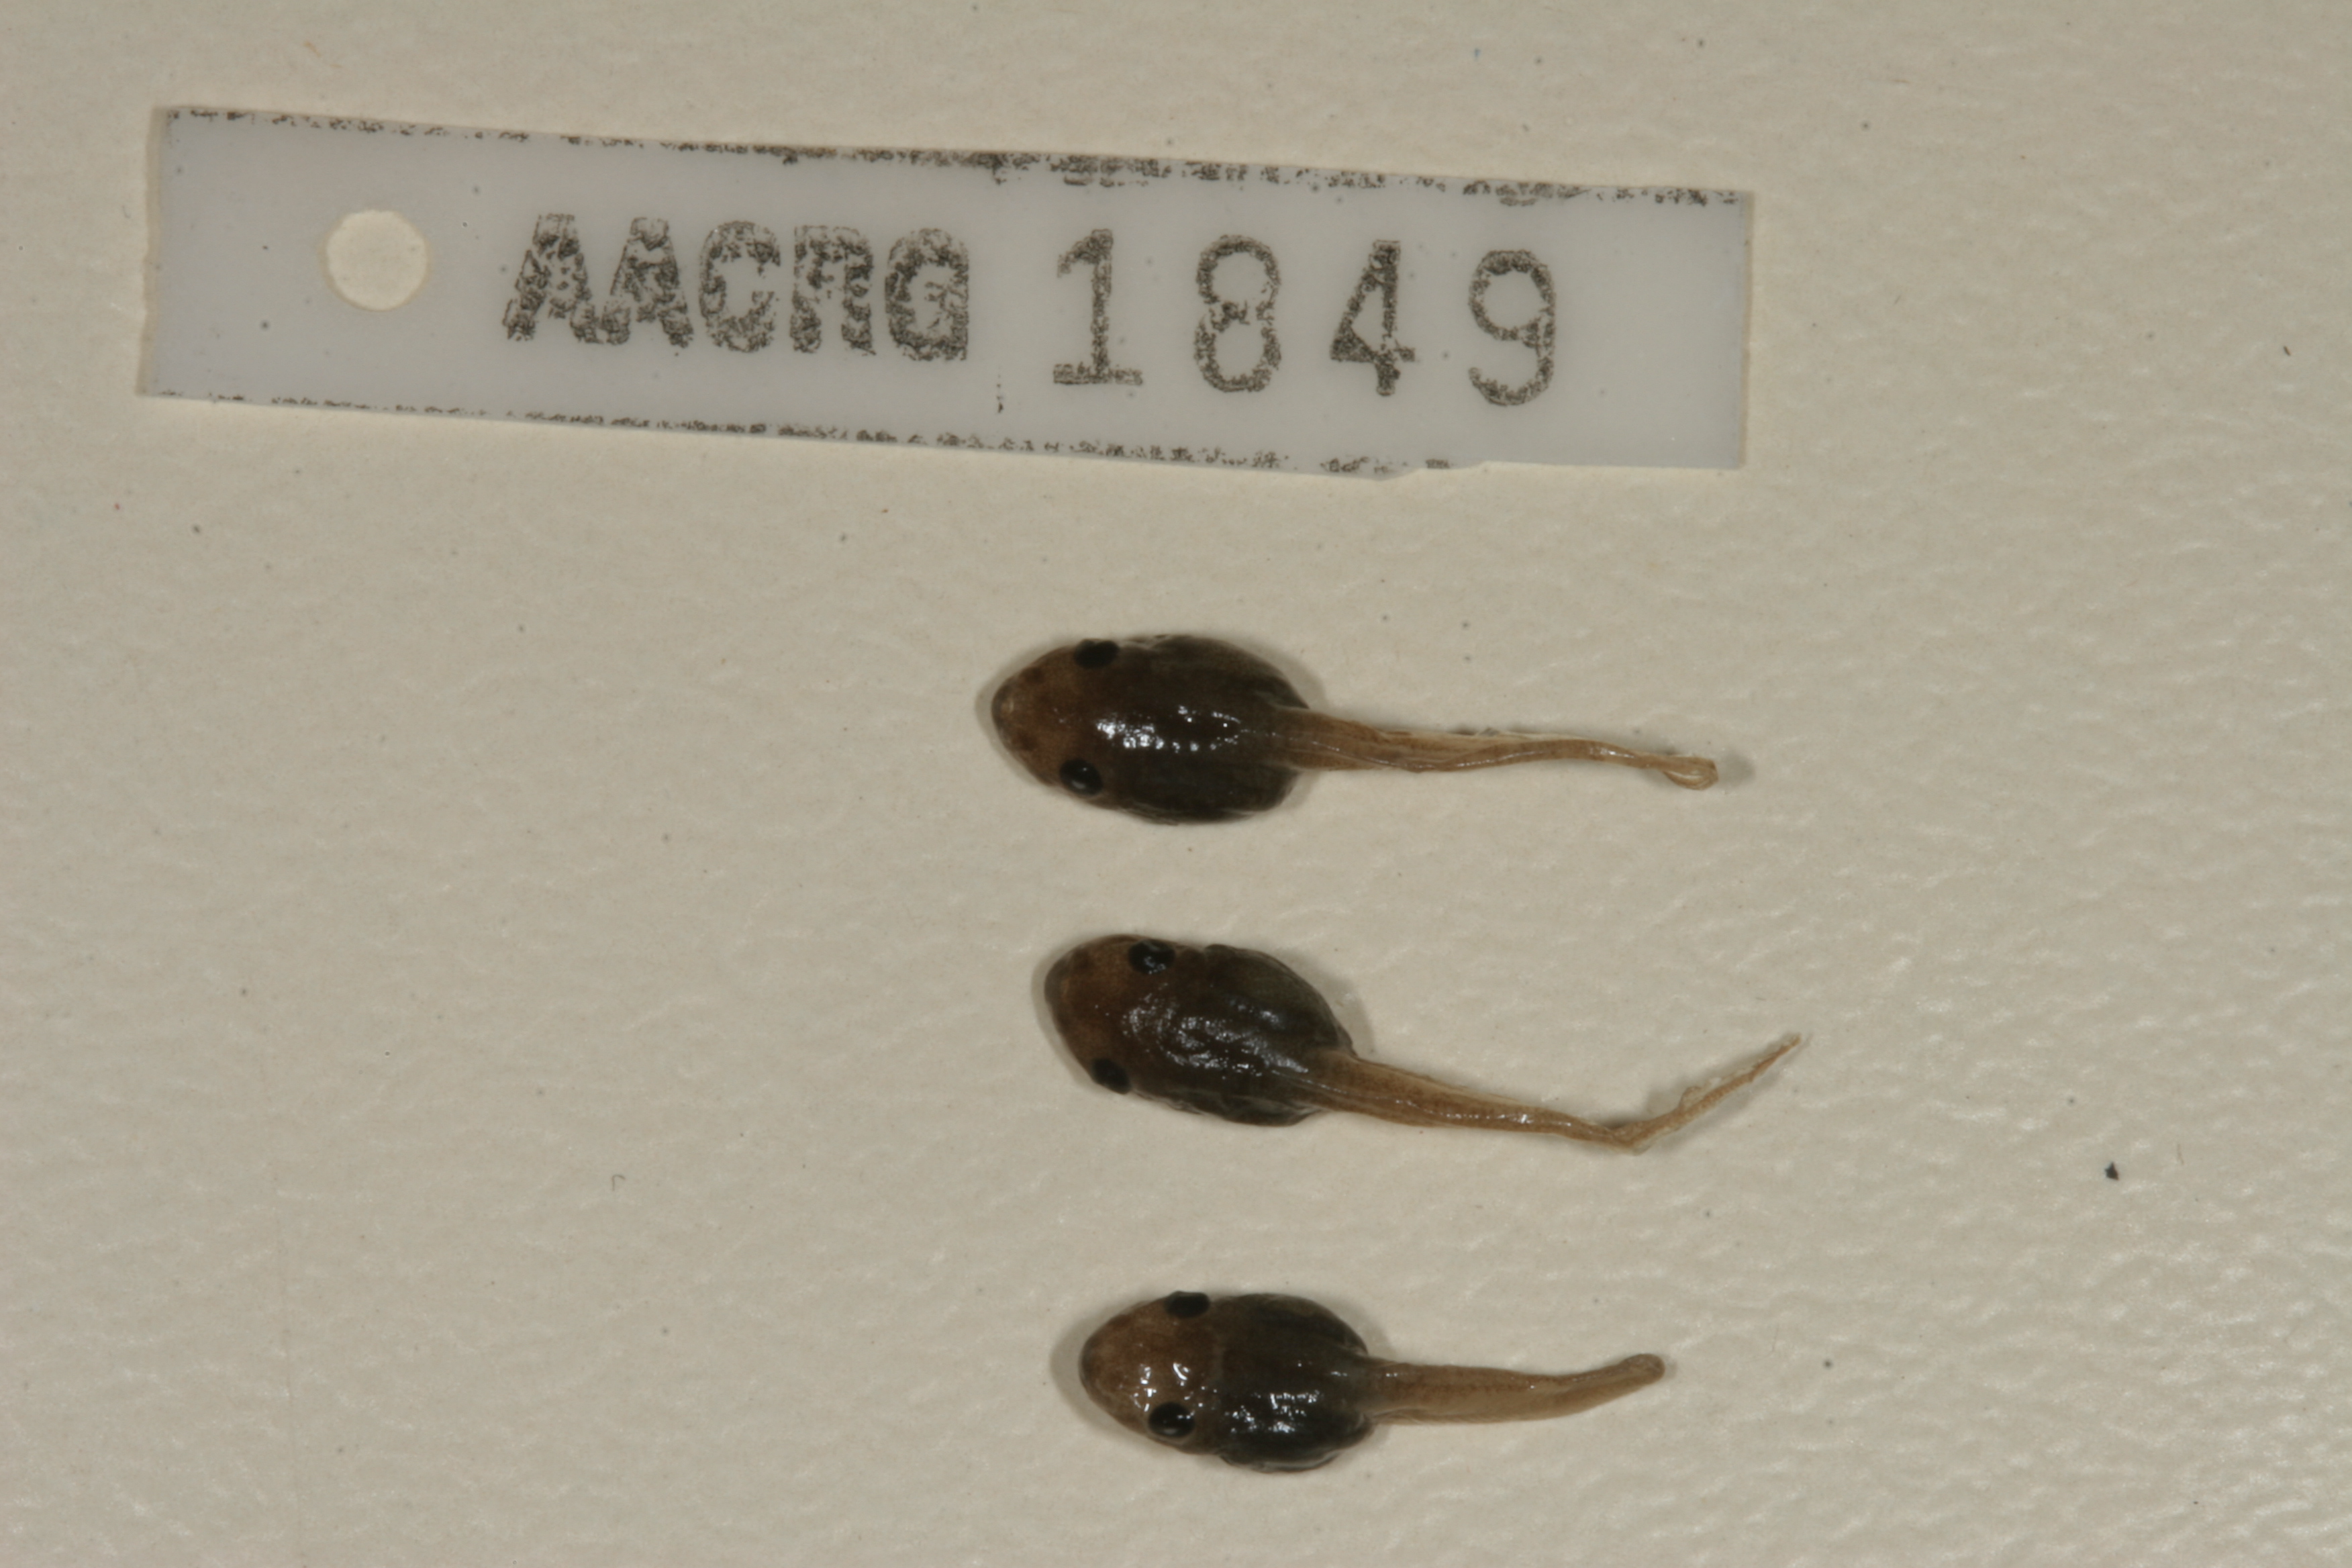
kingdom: Animalia
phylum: Chordata
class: Amphibia
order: Anura
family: Hemisotidae
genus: Hemisus
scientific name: Hemisus marmoratus
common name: Mottled shovel-nosed frog
